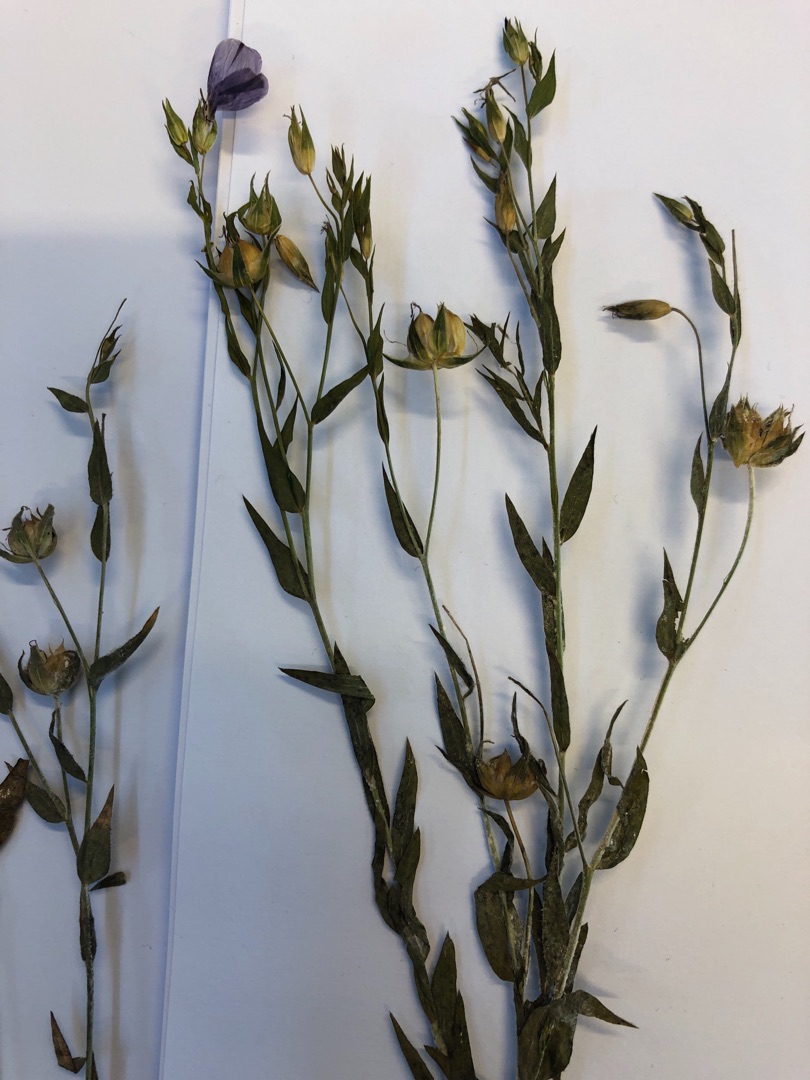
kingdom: Plantae
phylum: Tracheophyta
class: Magnoliopsida
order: Malpighiales
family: Linaceae
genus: Linum
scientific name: Linum usitatissimum
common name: Almindelig hør
